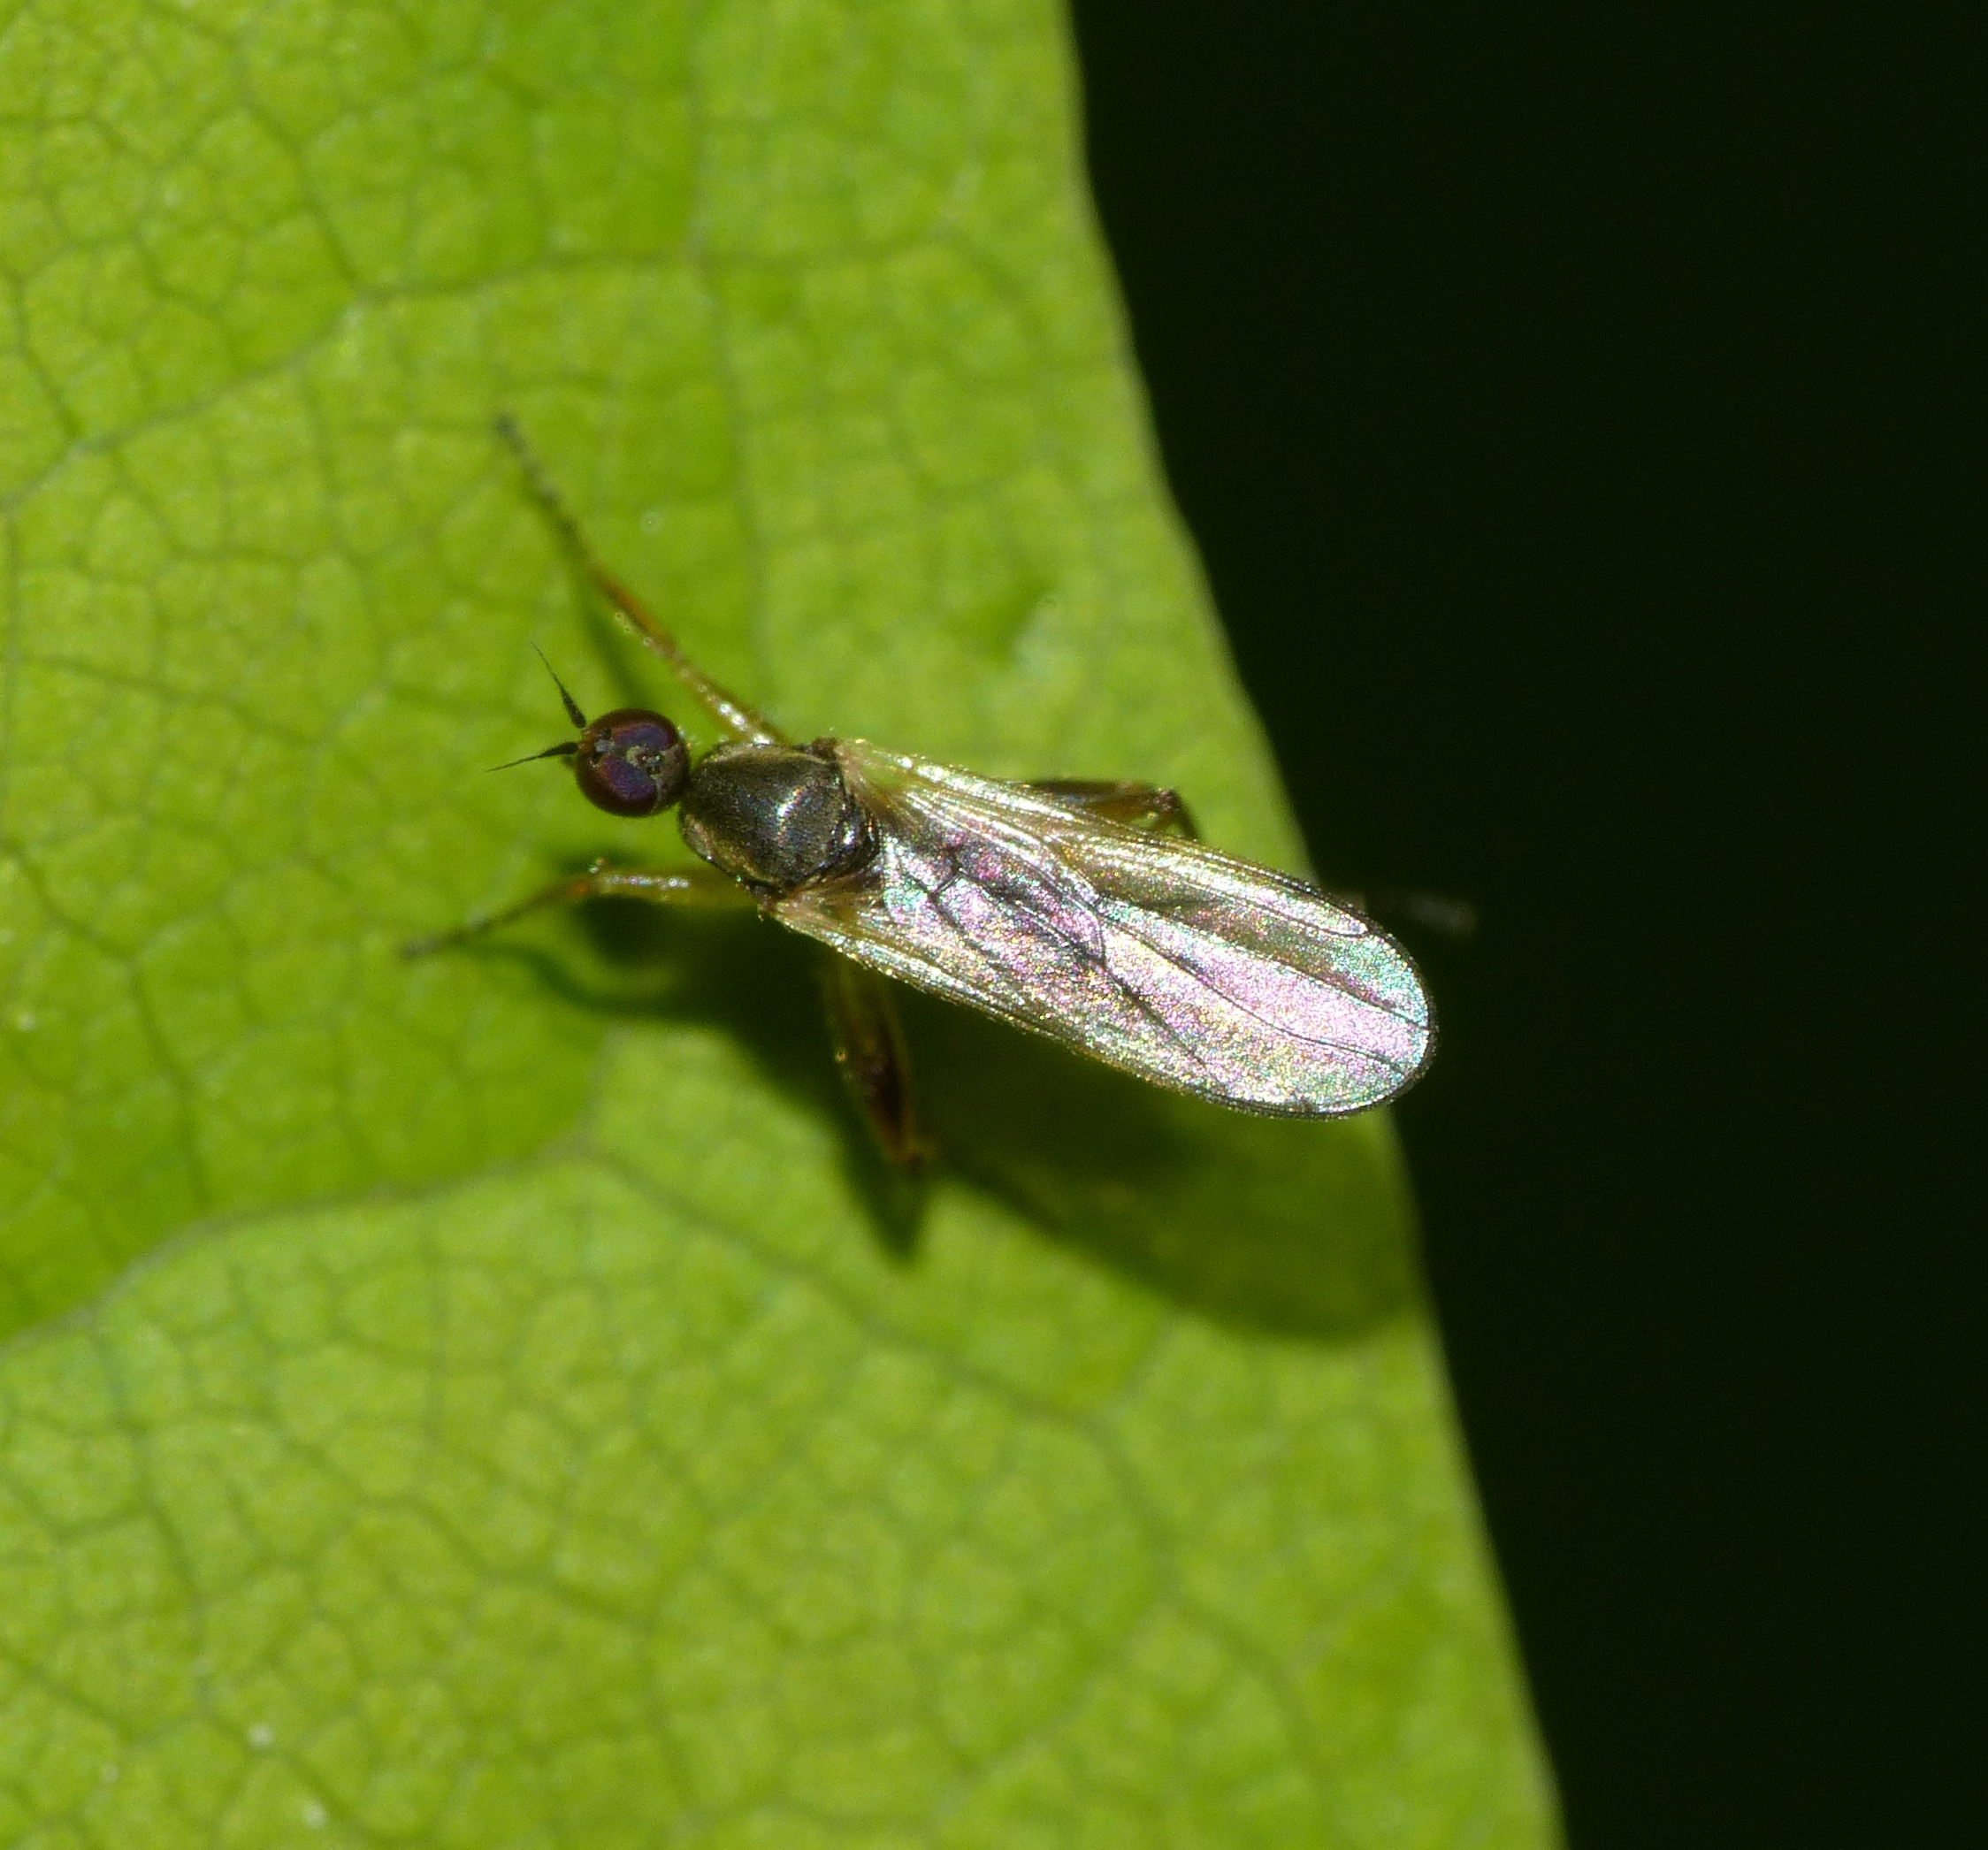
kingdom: Animalia
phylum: Arthropoda
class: Insecta
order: Diptera
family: Hybotidae
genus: Platypalpus
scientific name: Platypalpus annulipes
